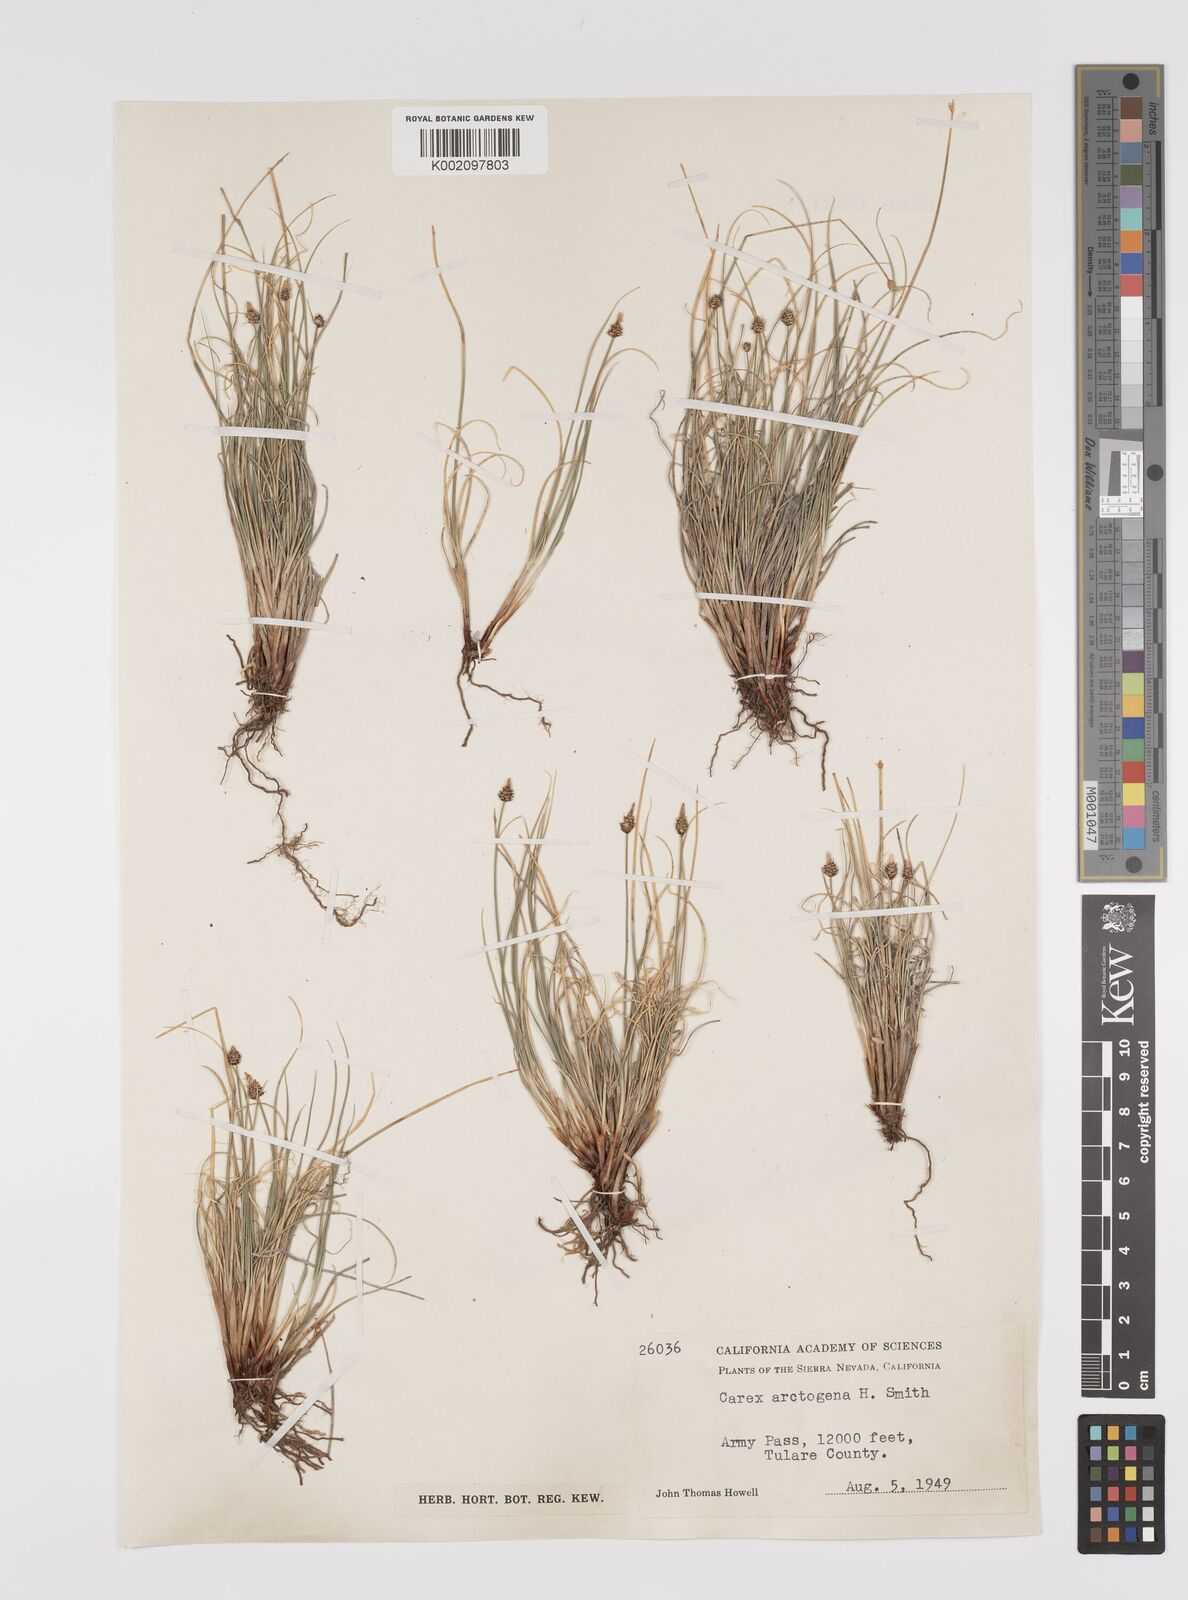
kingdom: Plantae
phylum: Tracheophyta
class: Liliopsida
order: Poales
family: Cyperaceae
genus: Carex
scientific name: Carex arctogena
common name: Black sedge
